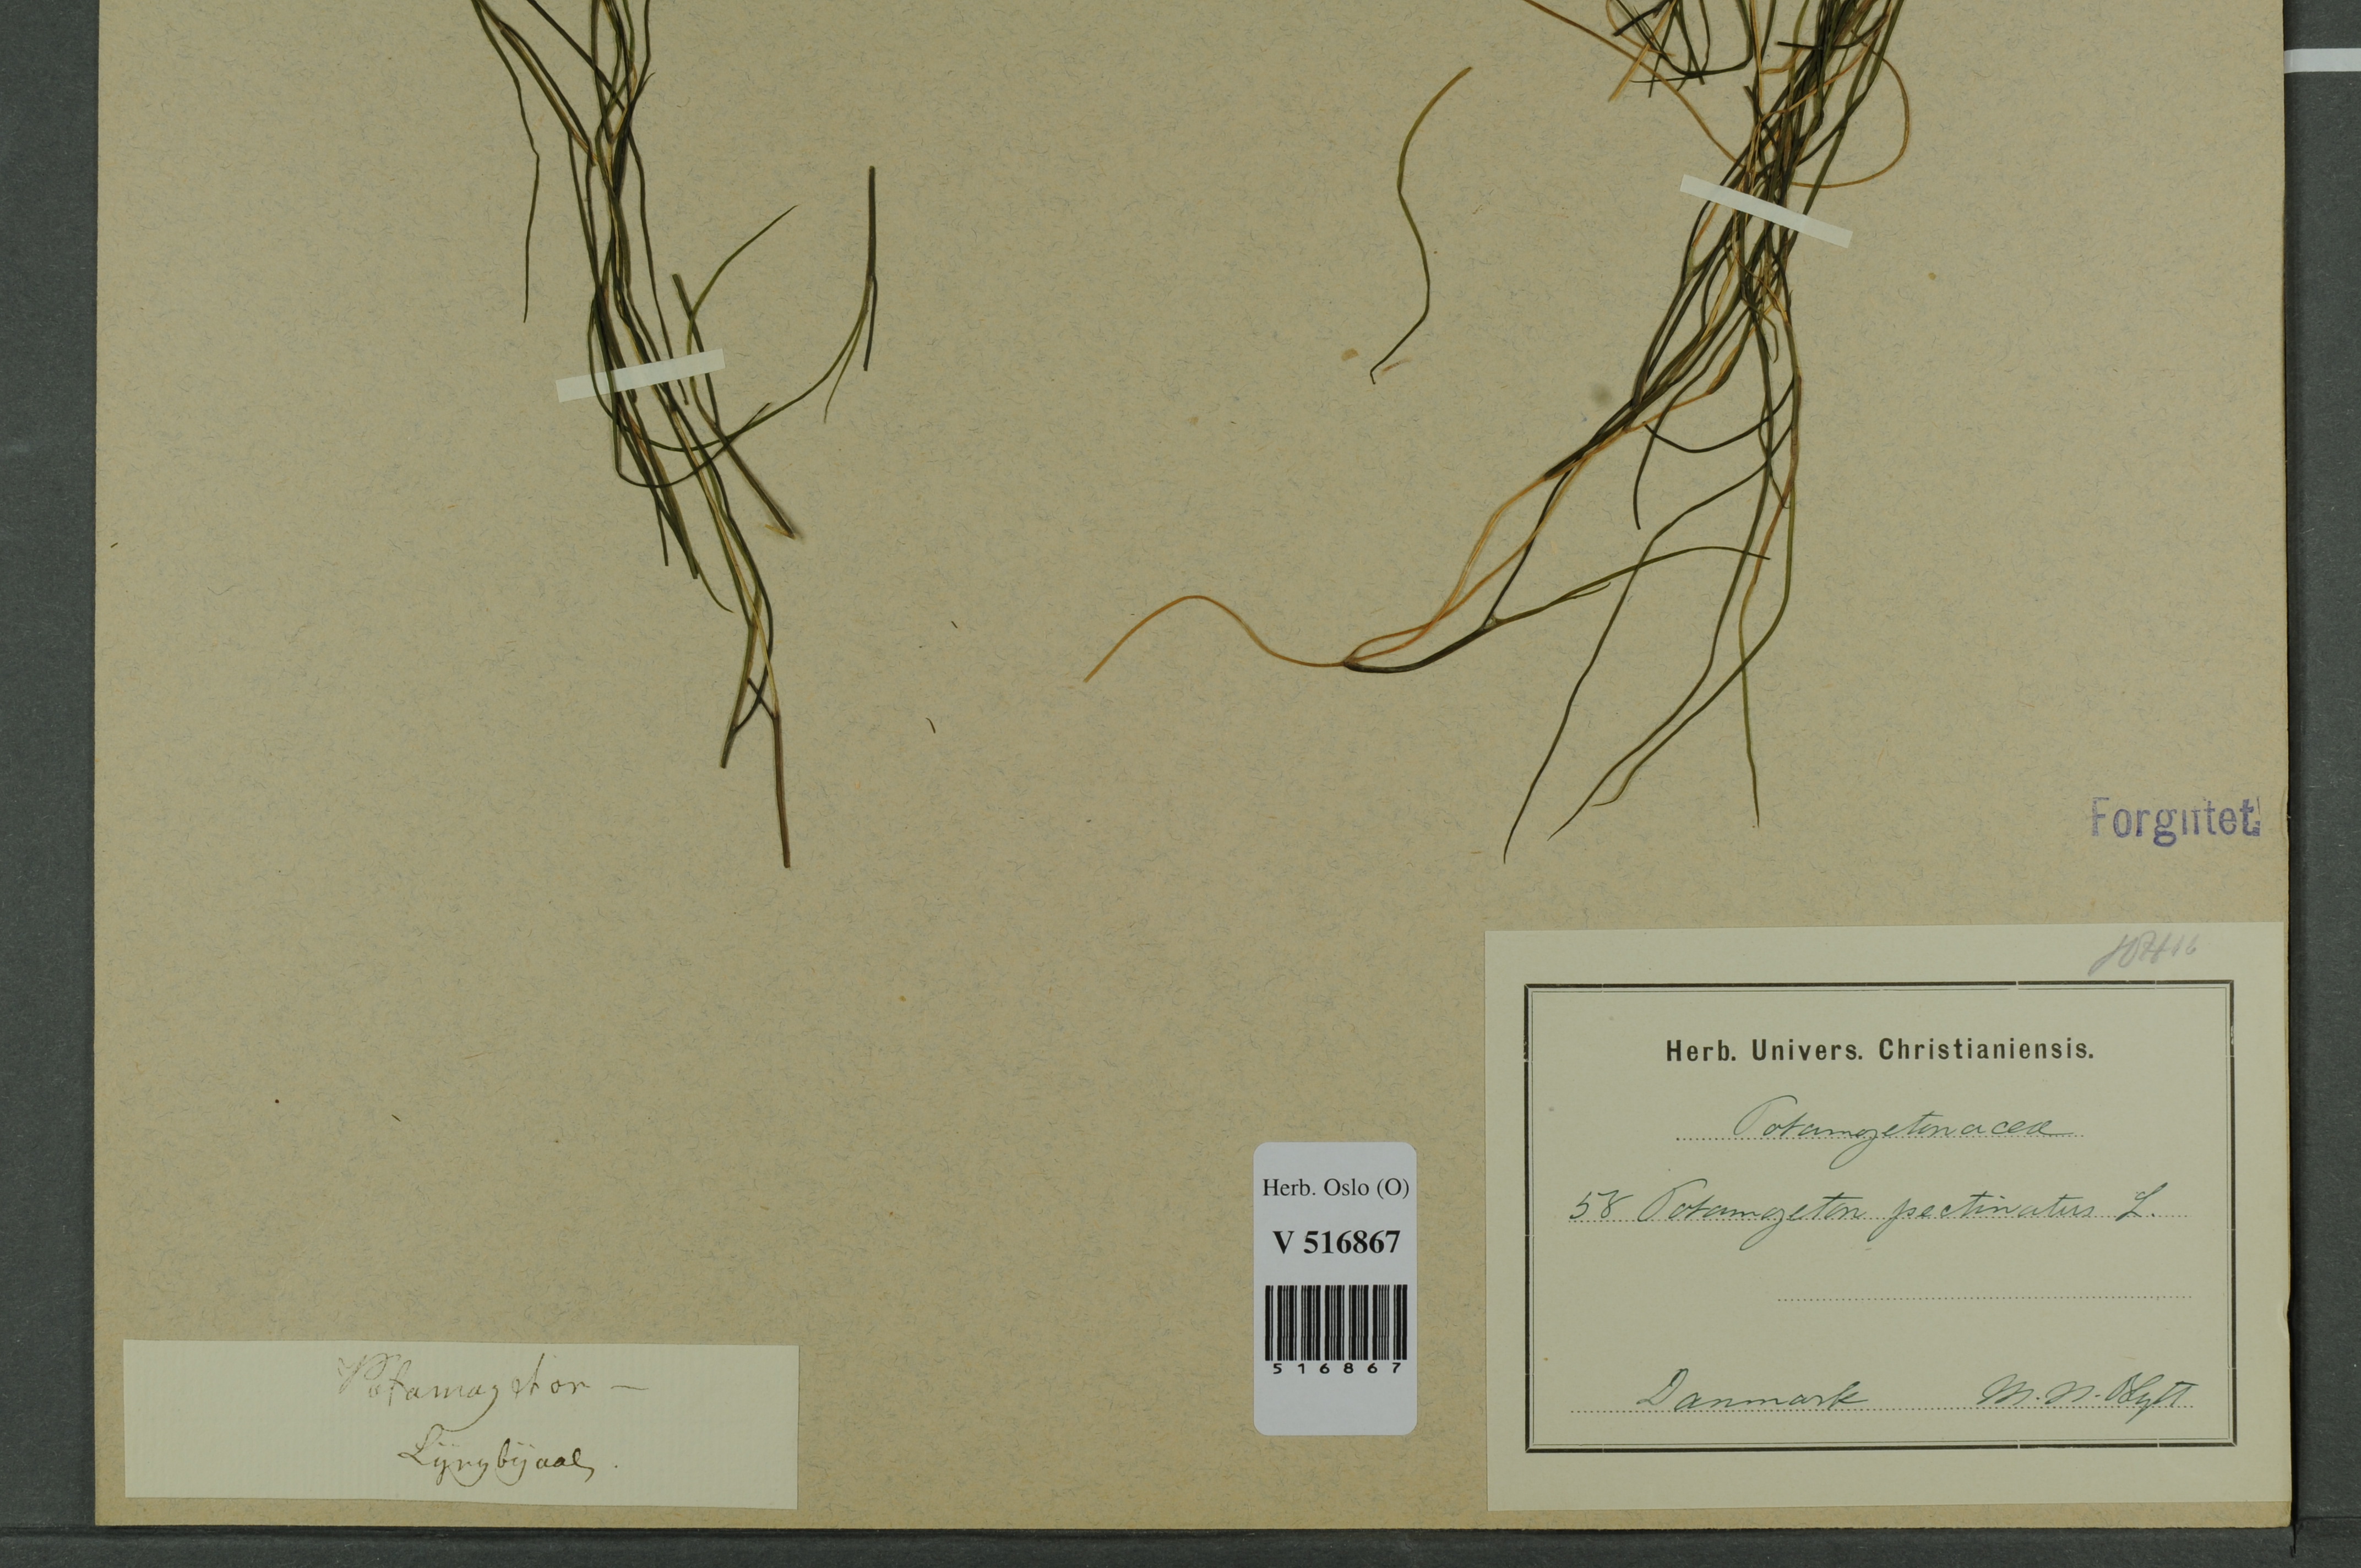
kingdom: Plantae
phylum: Tracheophyta
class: Liliopsida
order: Alismatales
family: Potamogetonaceae
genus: Stuckenia
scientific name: Stuckenia pectinata
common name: Sago pondweed
